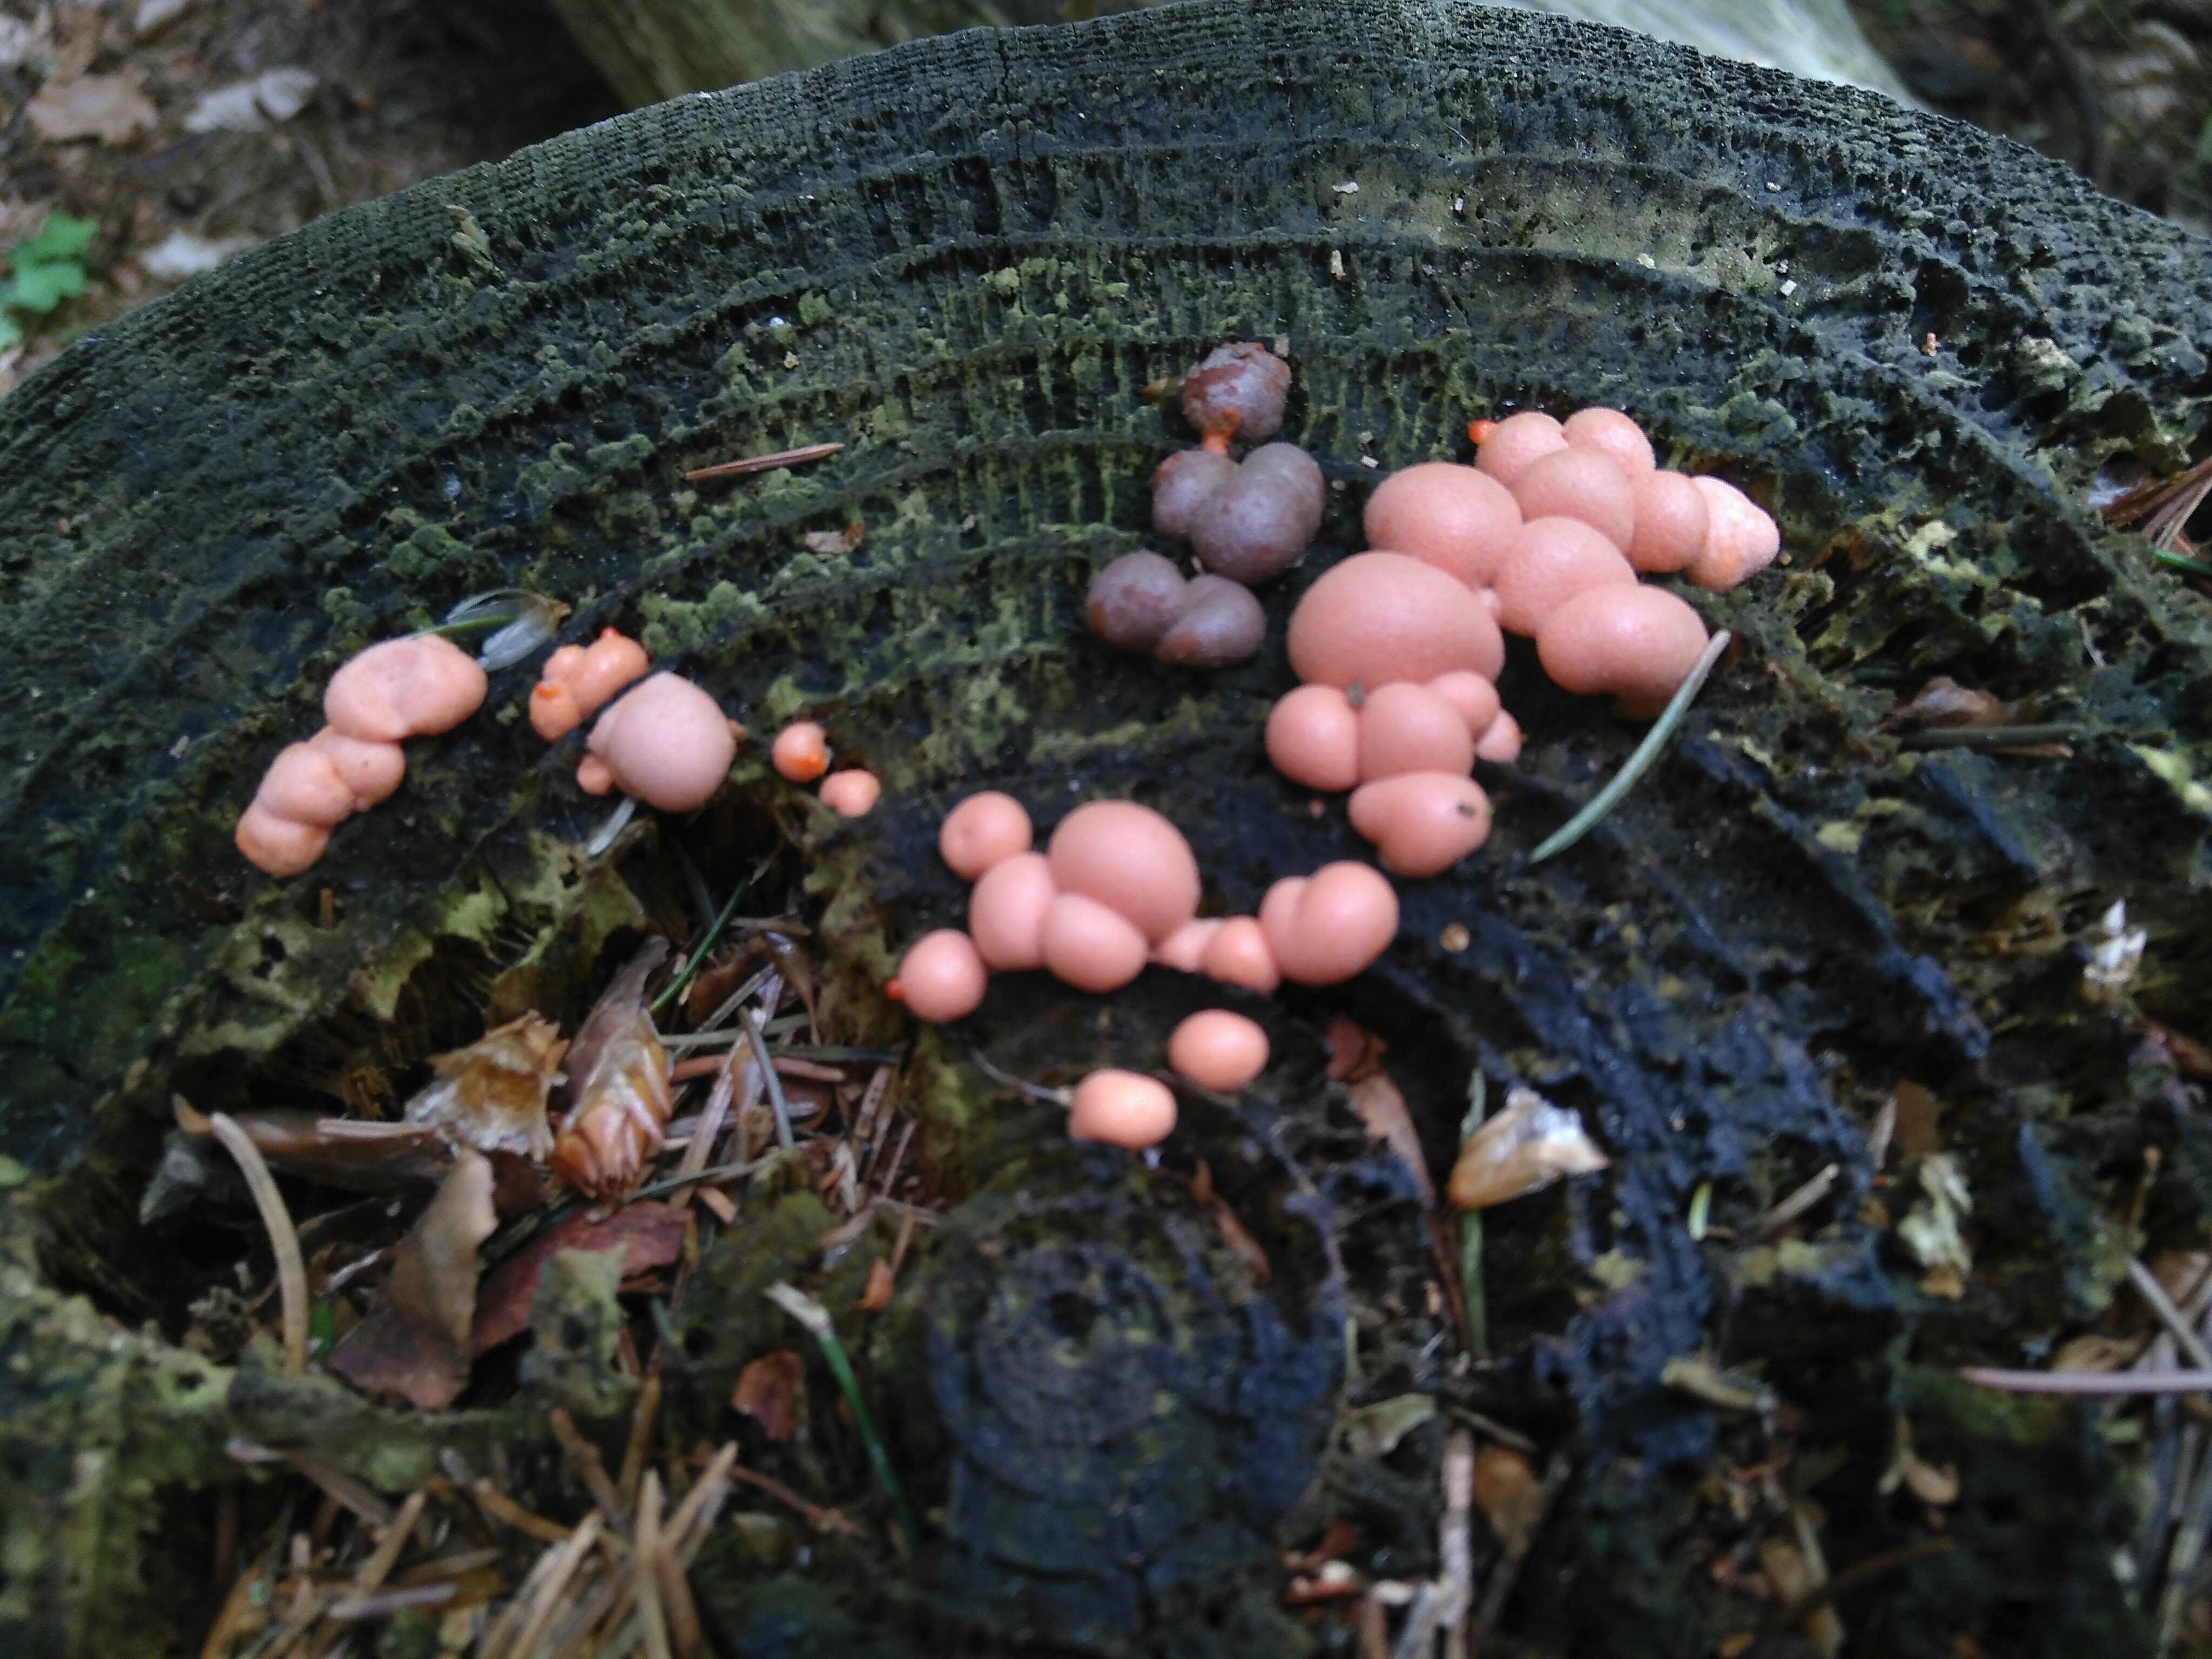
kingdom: Protozoa
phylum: Mycetozoa
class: Myxomycetes
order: Cribrariales
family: Tubiferaceae
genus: Lycogala
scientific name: Lycogala epidendrum
